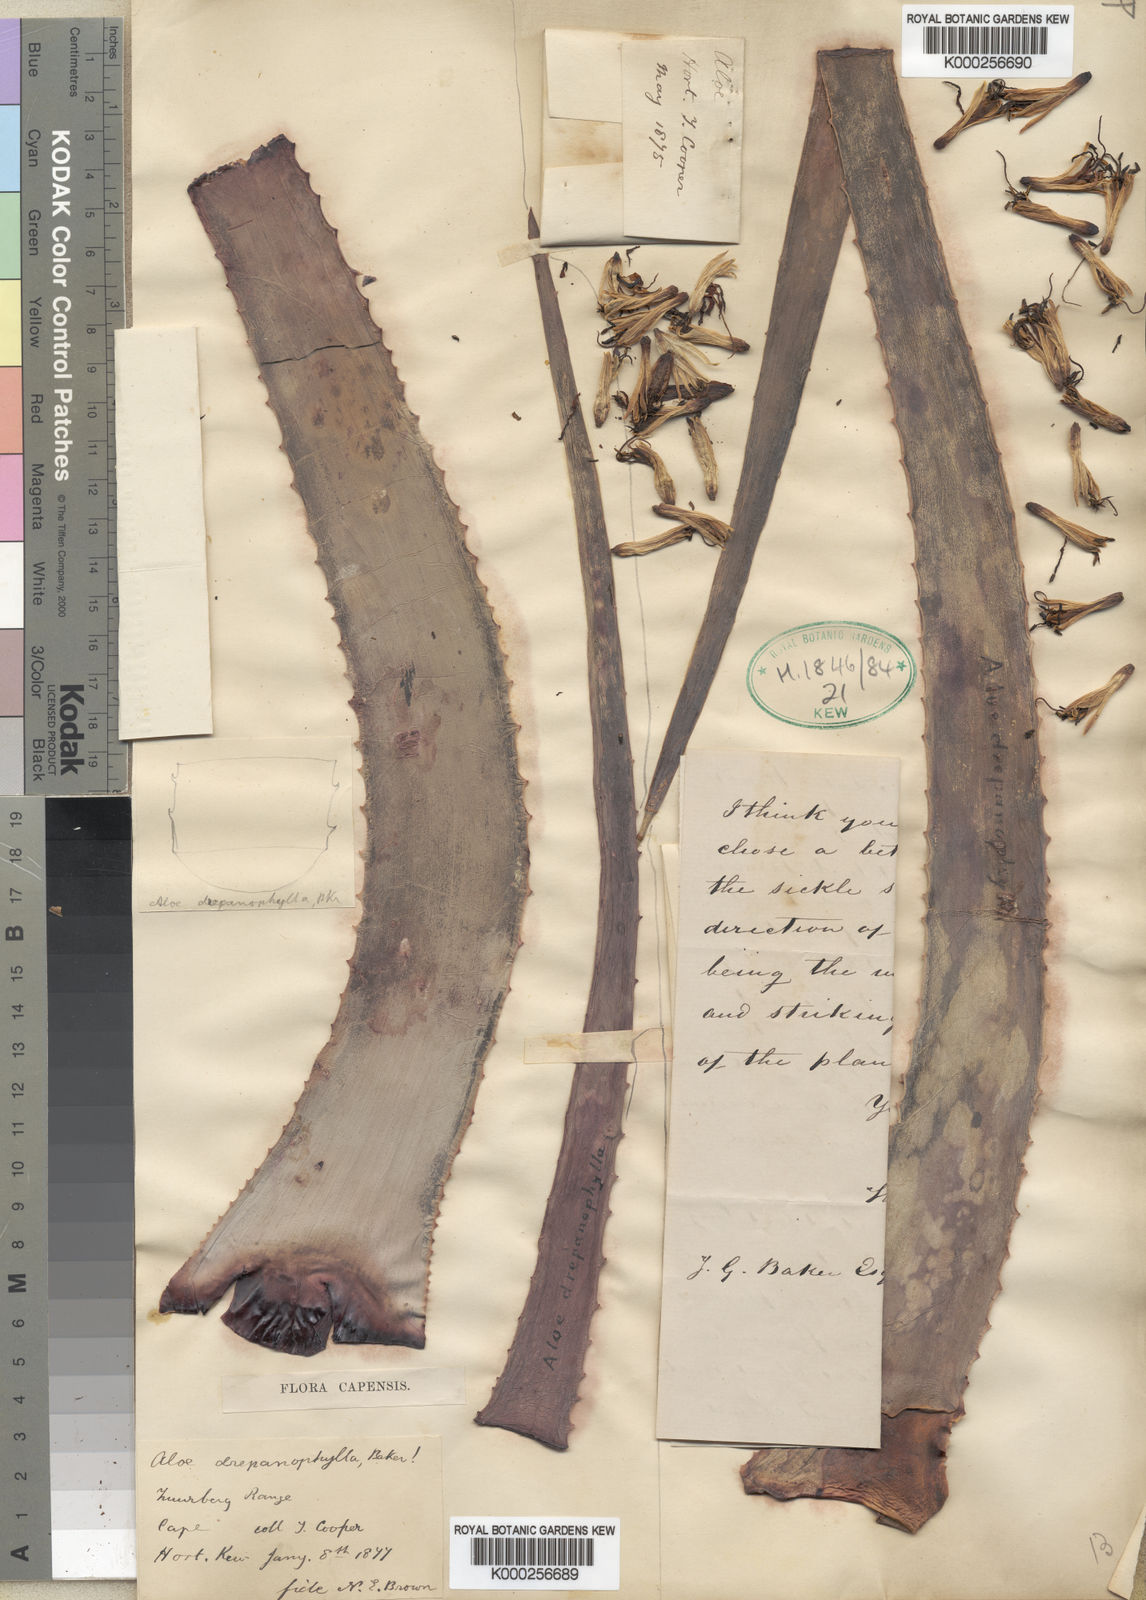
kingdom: Plantae
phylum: Tracheophyta
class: Liliopsida
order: Asparagales
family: Asphodelaceae
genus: Aloe
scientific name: Aloe hexapetala
